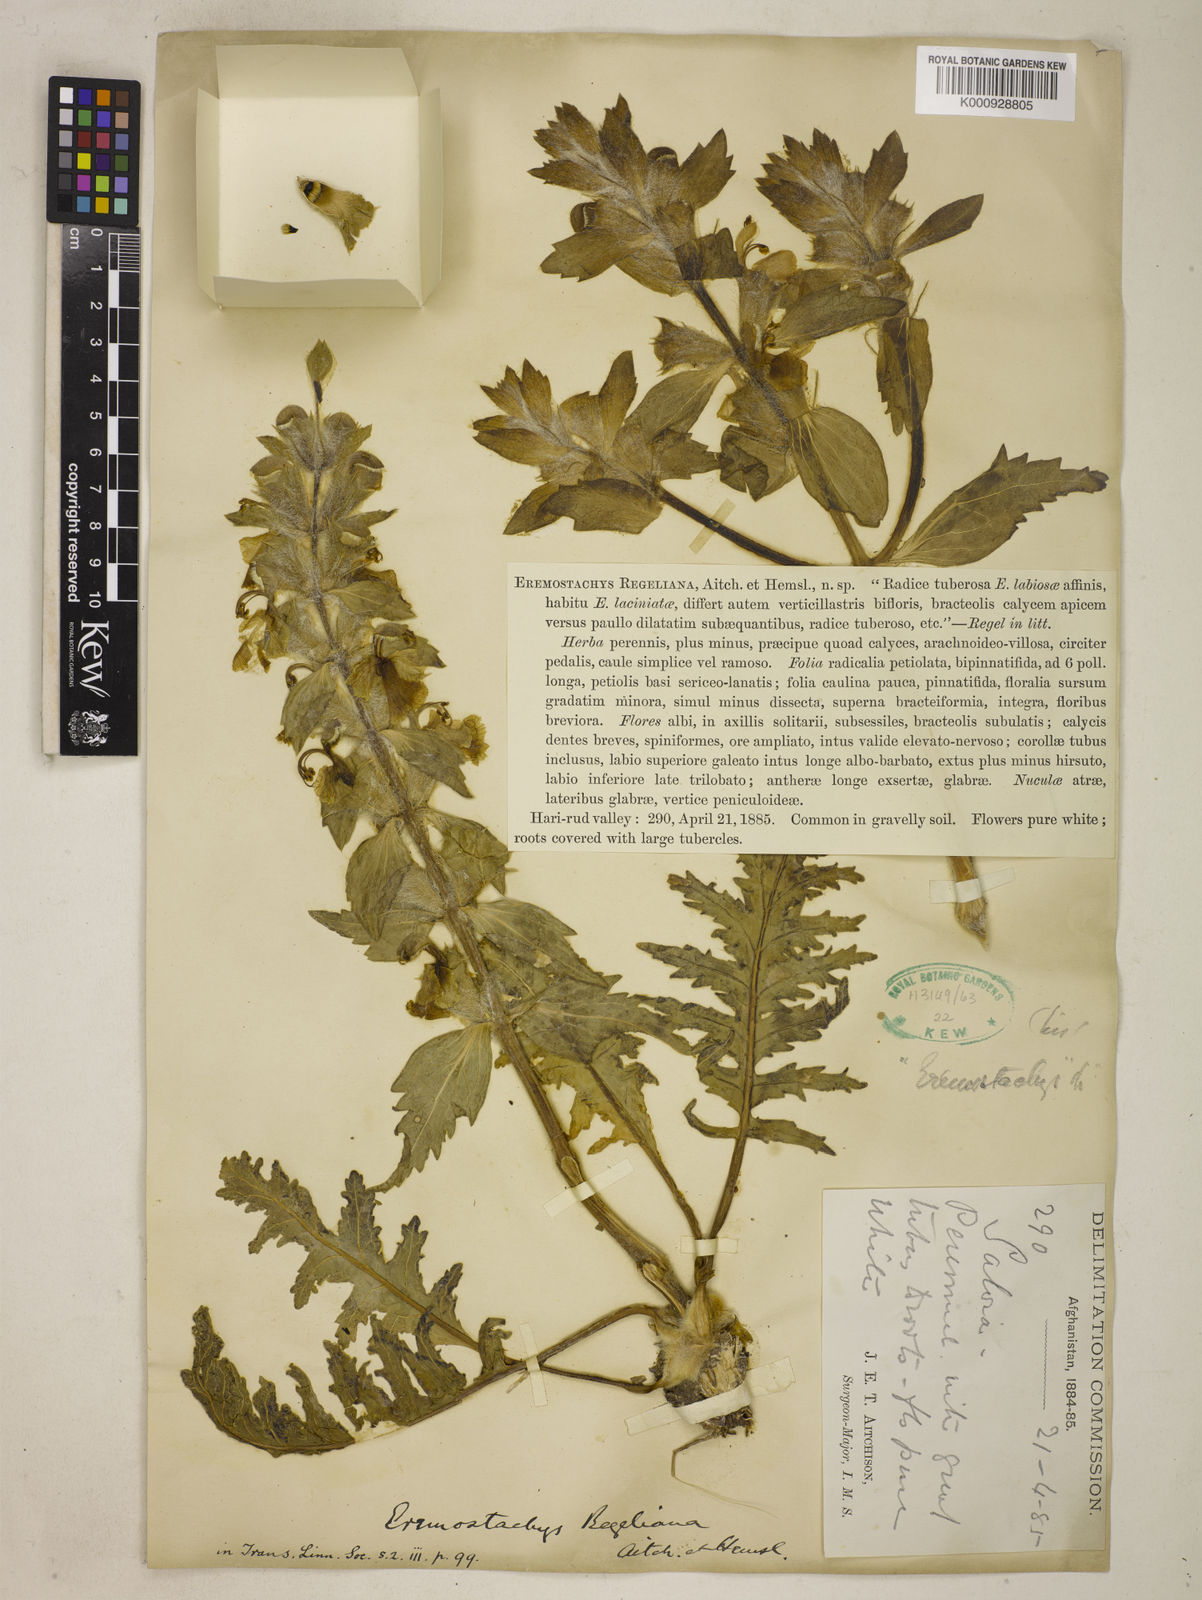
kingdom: Plantae
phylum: Tracheophyta
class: Magnoliopsida
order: Lamiales
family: Lamiaceae
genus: Phlomoides
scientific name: Phlomoides regeliana
